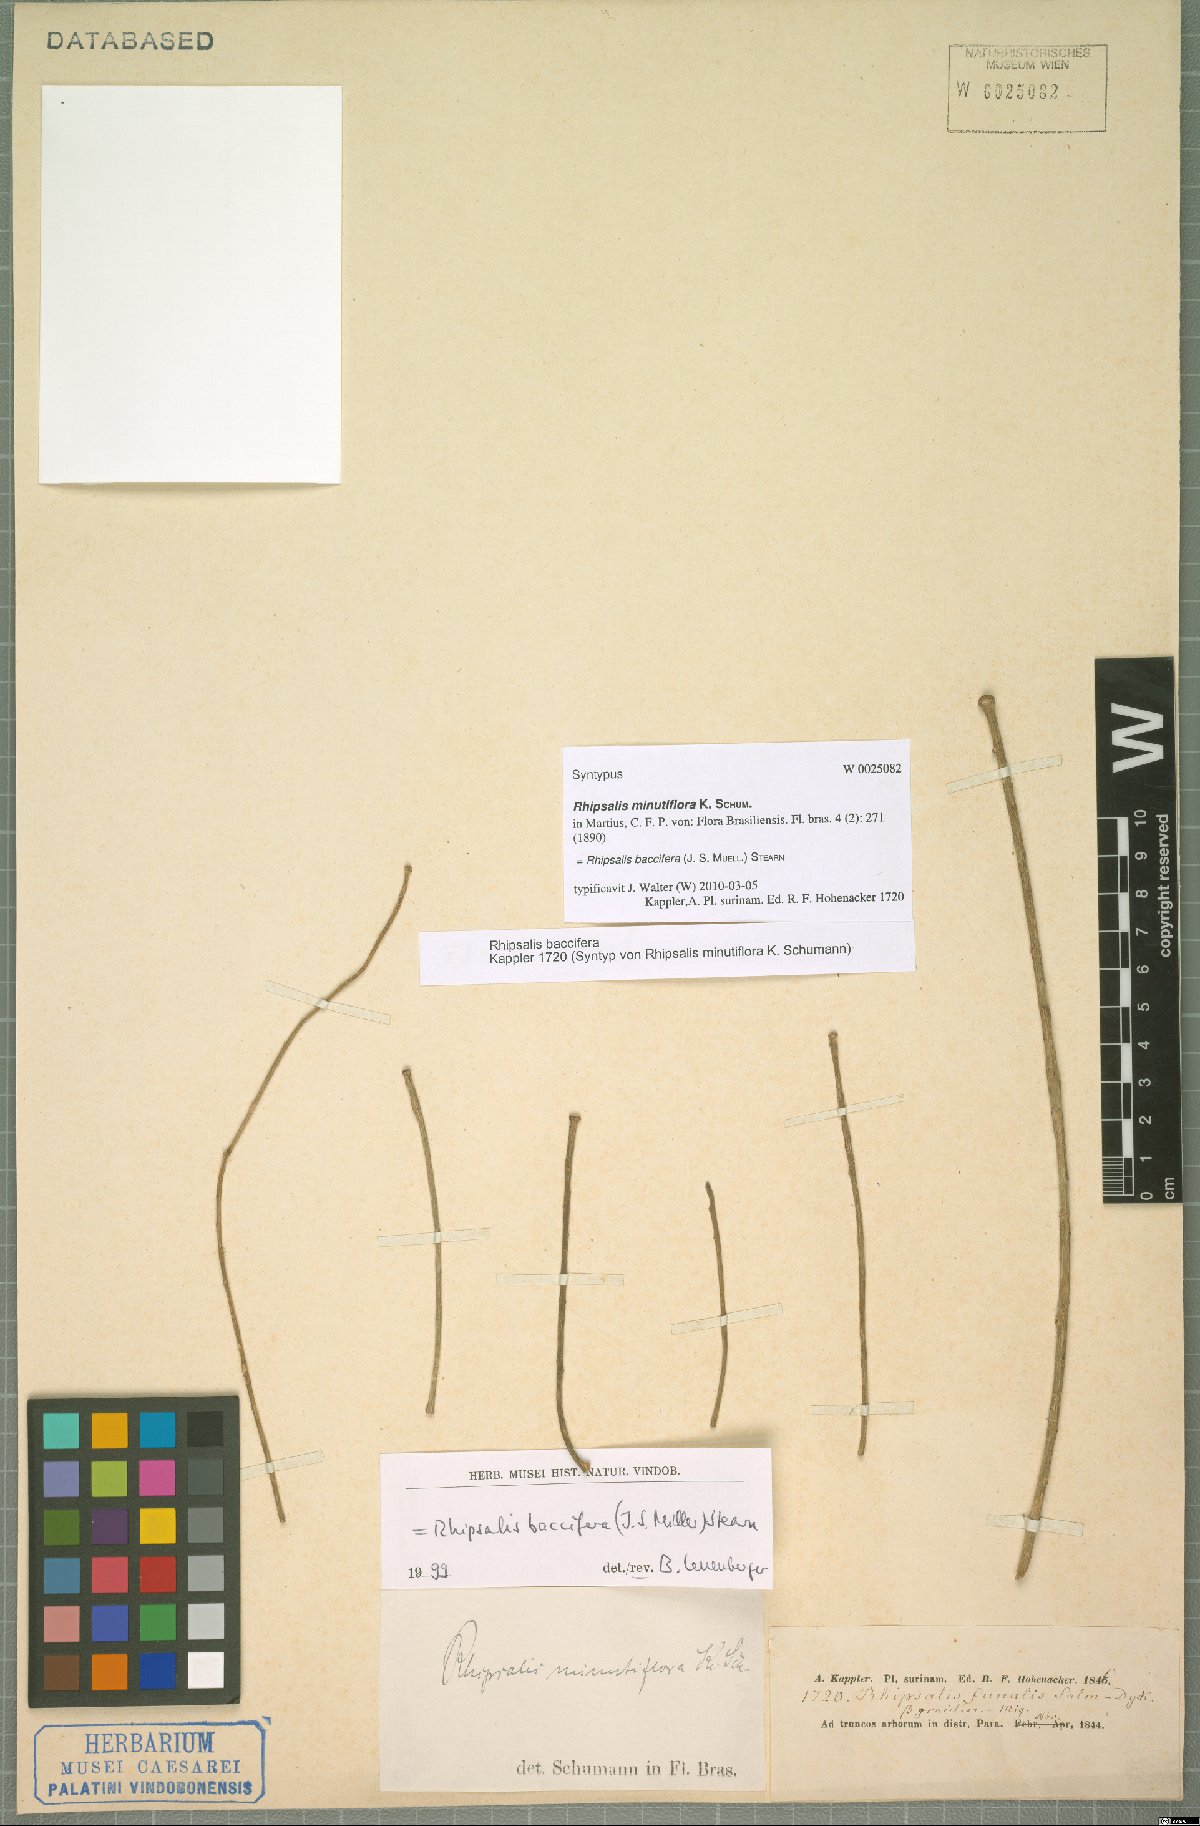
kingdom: Plantae
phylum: Tracheophyta
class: Magnoliopsida
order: Caryophyllales
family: Cactaceae
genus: Rhipsalis
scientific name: Rhipsalis baccifera
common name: Mistletoe cactus
